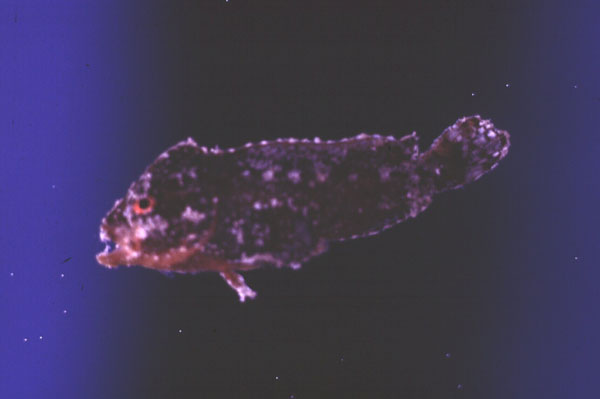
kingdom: Animalia
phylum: Chordata
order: Scorpaeniformes
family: Aploactinidae
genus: Cocotropus
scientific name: Cocotropus monacanthus
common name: Roughskin scorpionfish
